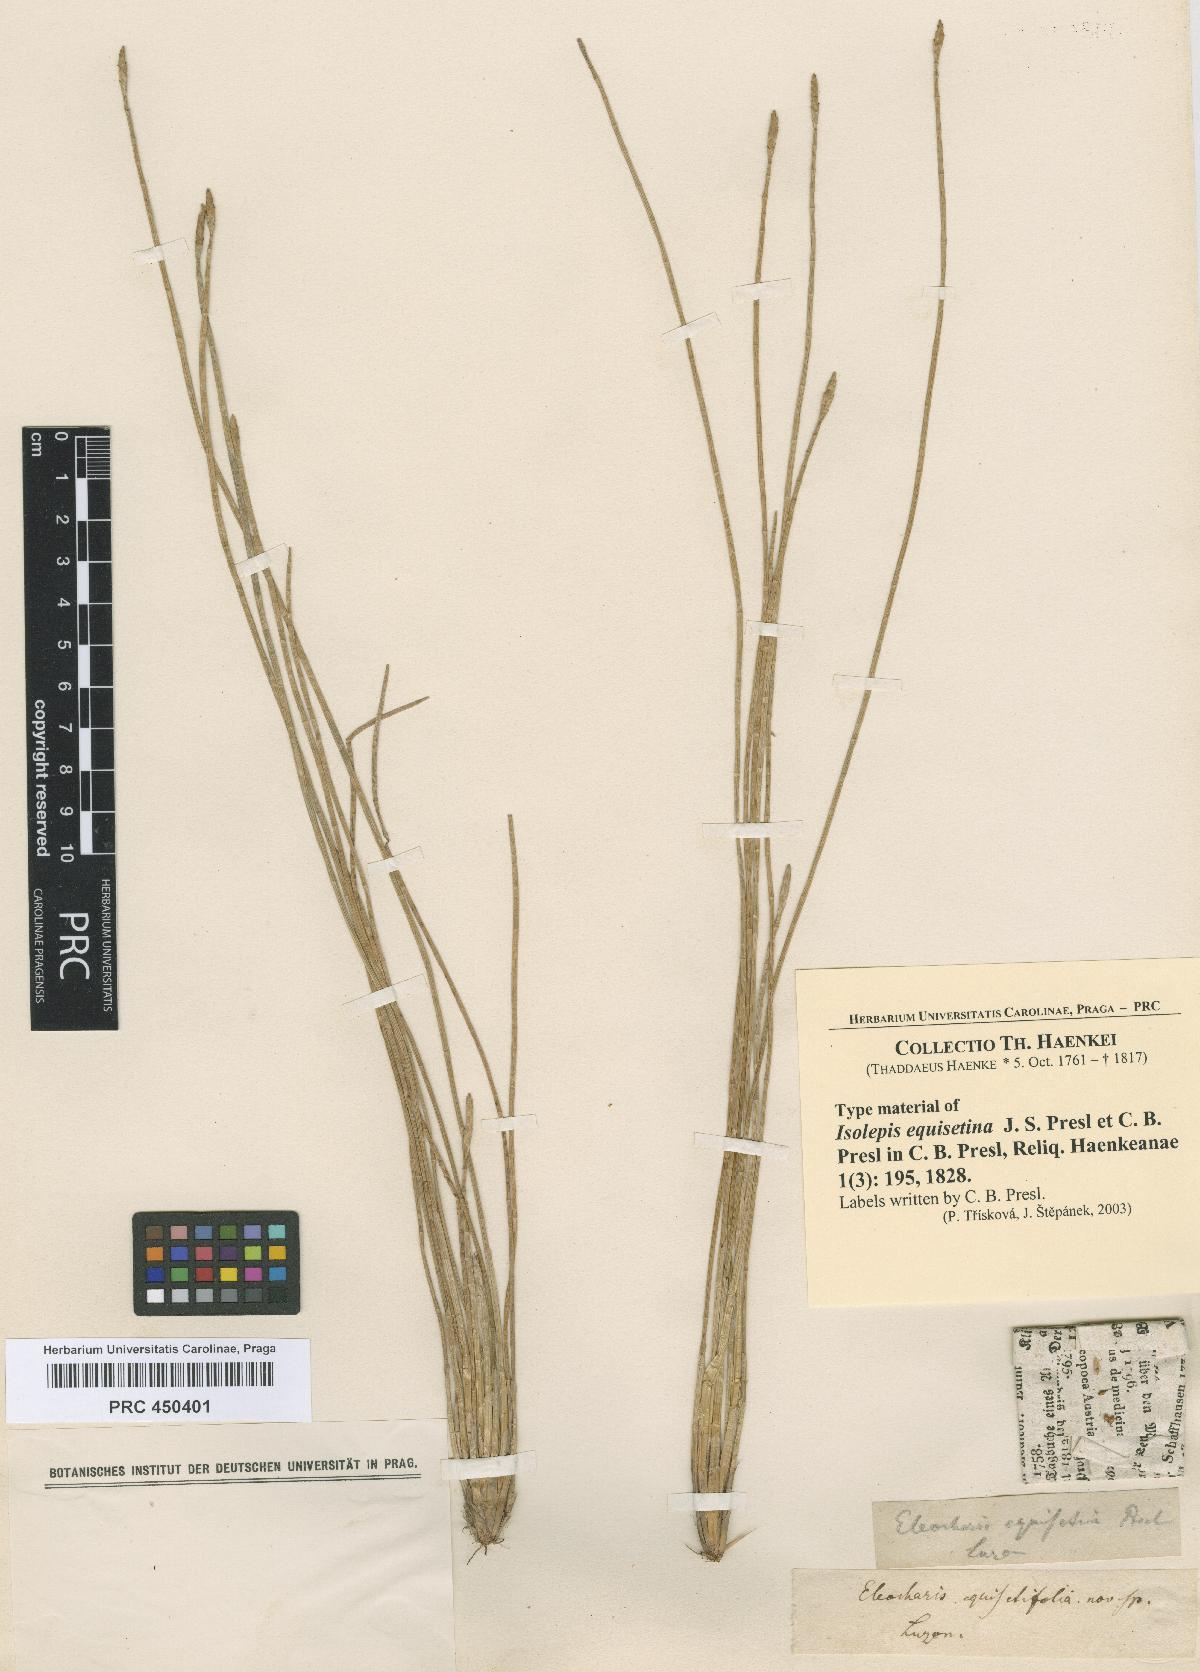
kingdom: Plantae
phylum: Tracheophyta
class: Liliopsida
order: Poales
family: Cyperaceae
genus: Isolepis
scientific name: Isolepis
